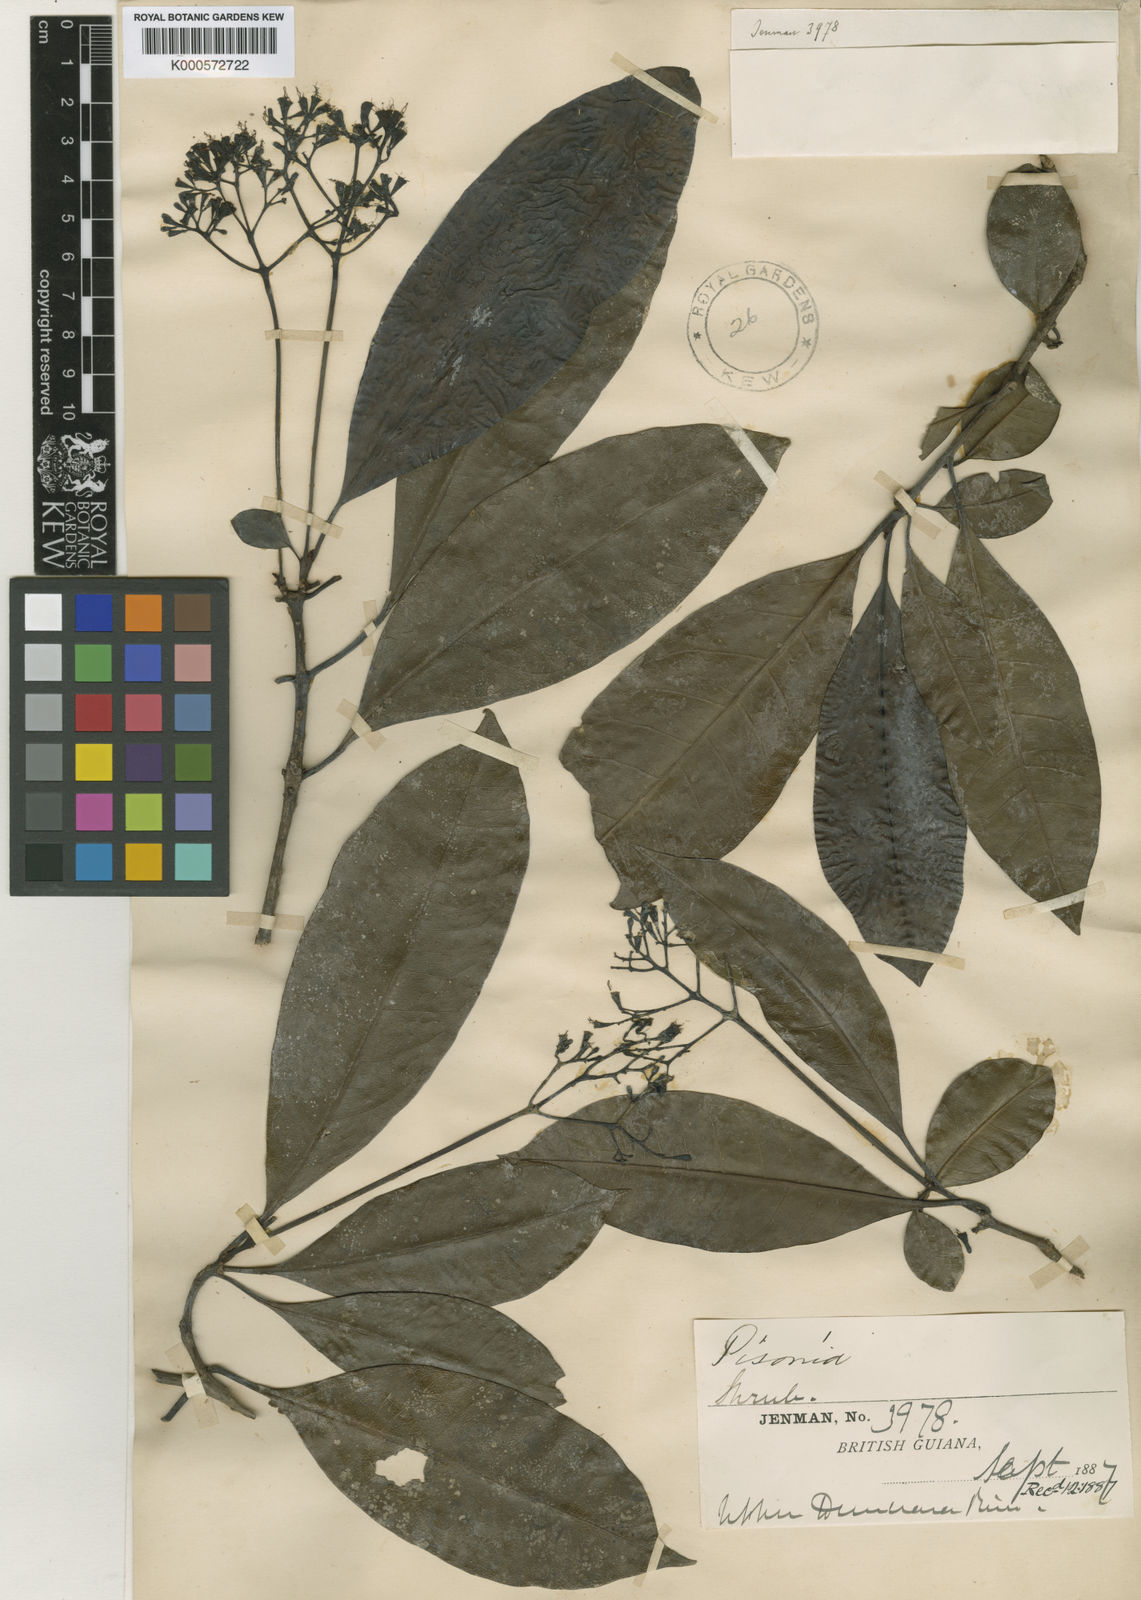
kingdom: Plantae
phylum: Tracheophyta
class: Magnoliopsida
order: Caryophyllales
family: Nyctaginaceae
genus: Guapira
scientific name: Guapira
